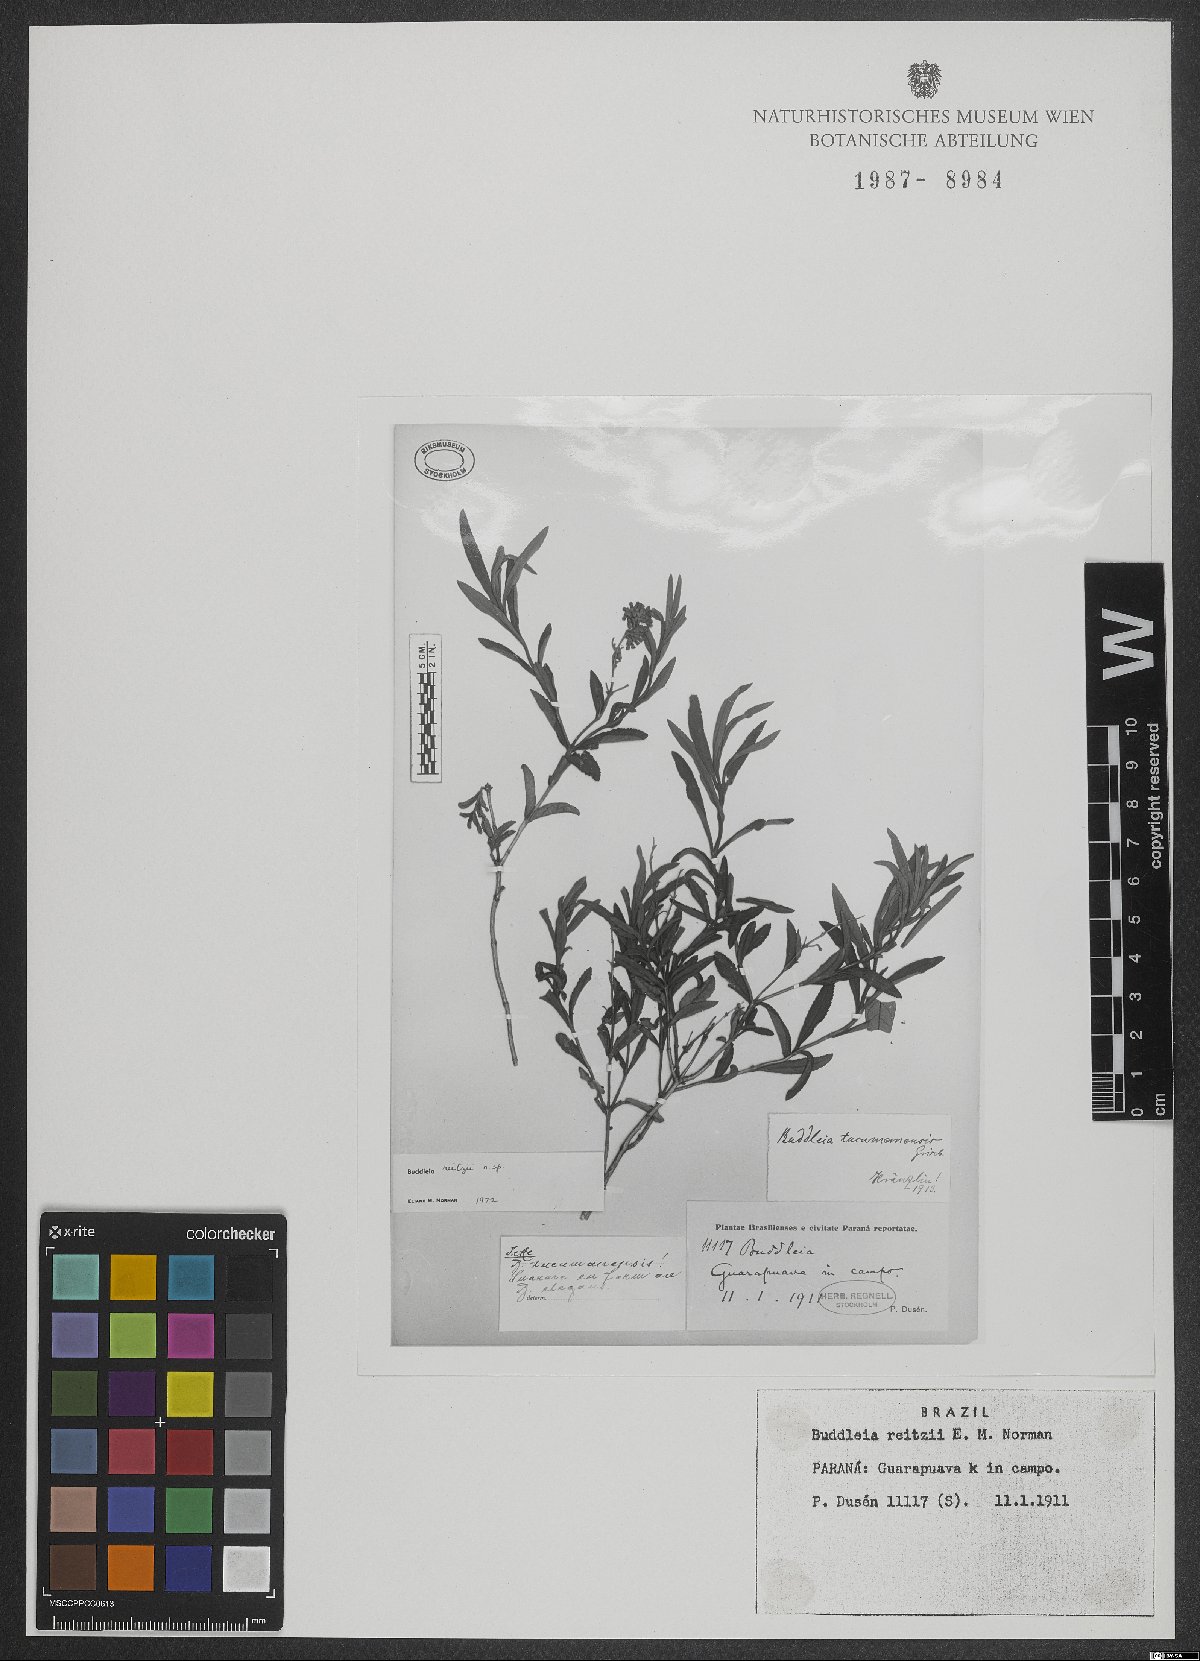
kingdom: Plantae
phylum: Tracheophyta
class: Magnoliopsida
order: Lamiales
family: Scrophulariaceae
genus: Buddleja
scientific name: Buddleja elegans
